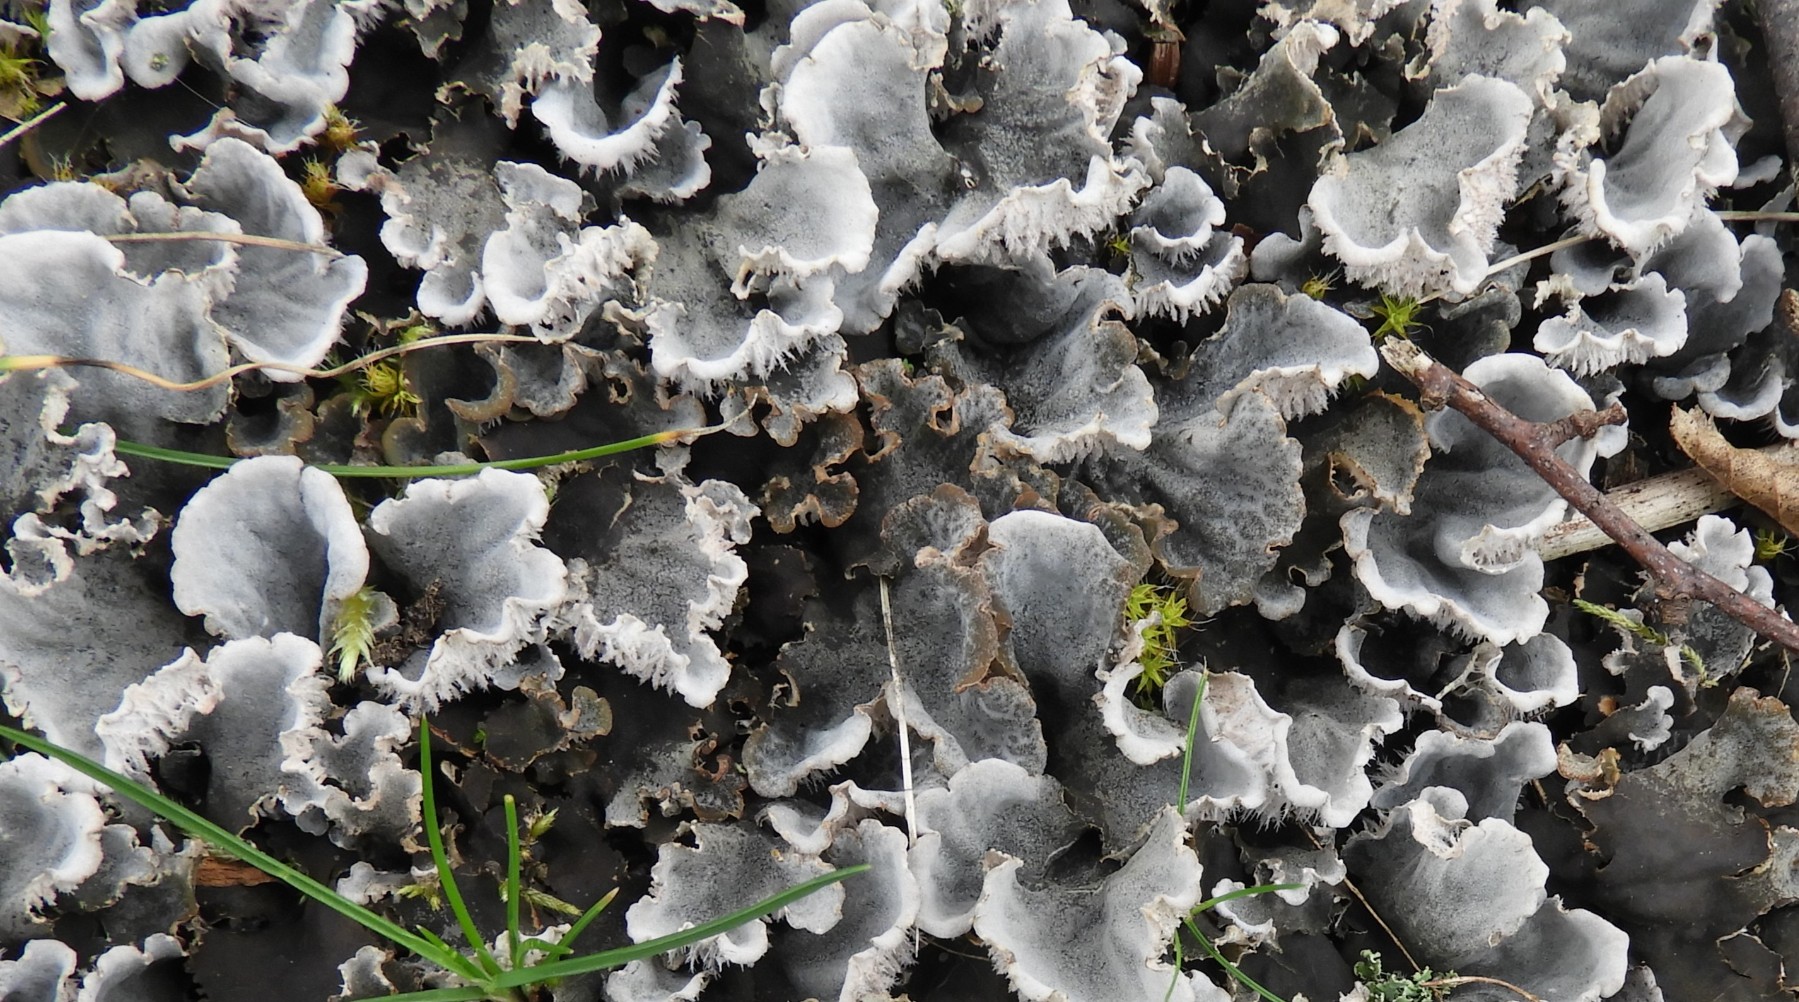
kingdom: Fungi
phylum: Ascomycota
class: Lecanoromycetes
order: Peltigerales
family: Peltigeraceae
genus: Peltigera
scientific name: Peltigera canina
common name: hunde-skjoldlav
